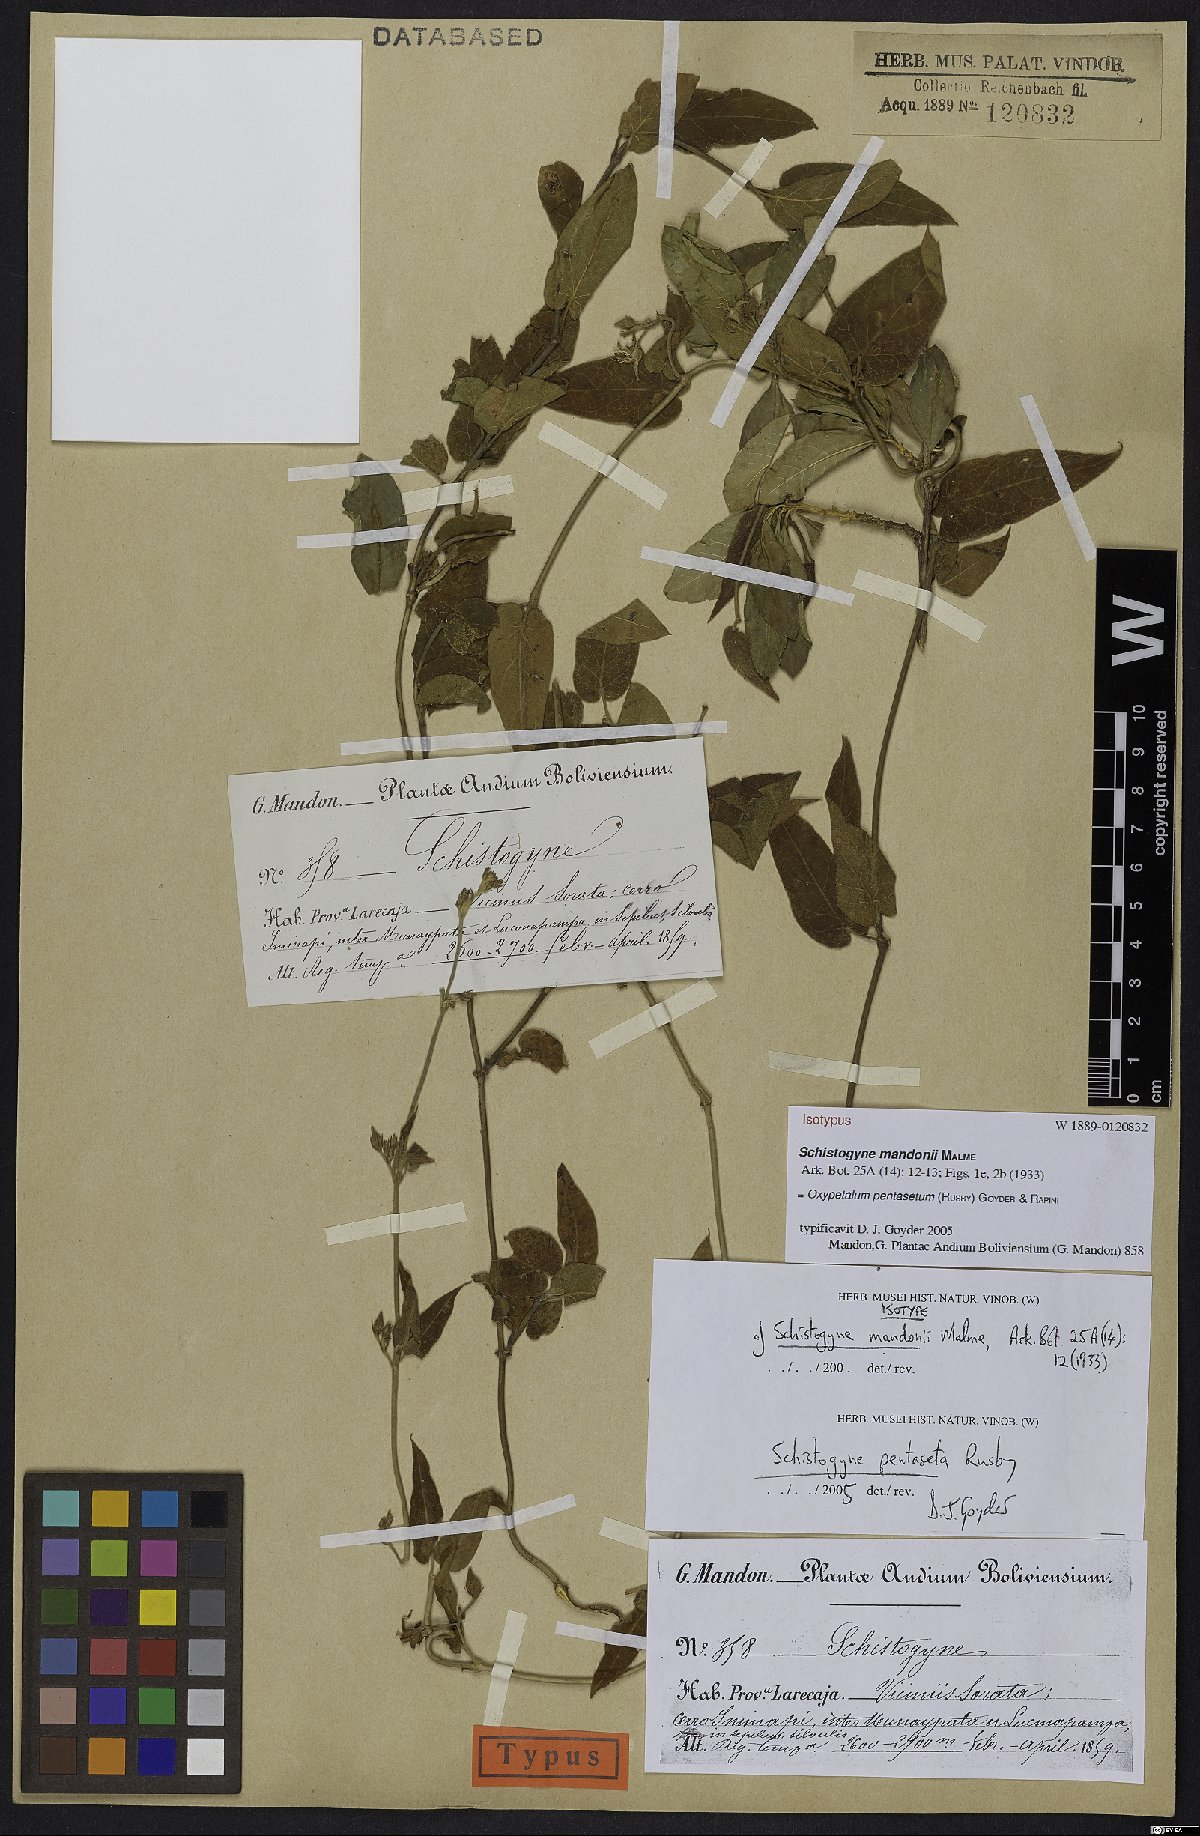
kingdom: Plantae
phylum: Tracheophyta
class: Magnoliopsida
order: Gentianales
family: Apocynaceae
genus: Oxypetalum
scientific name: Oxypetalum pentasetum
